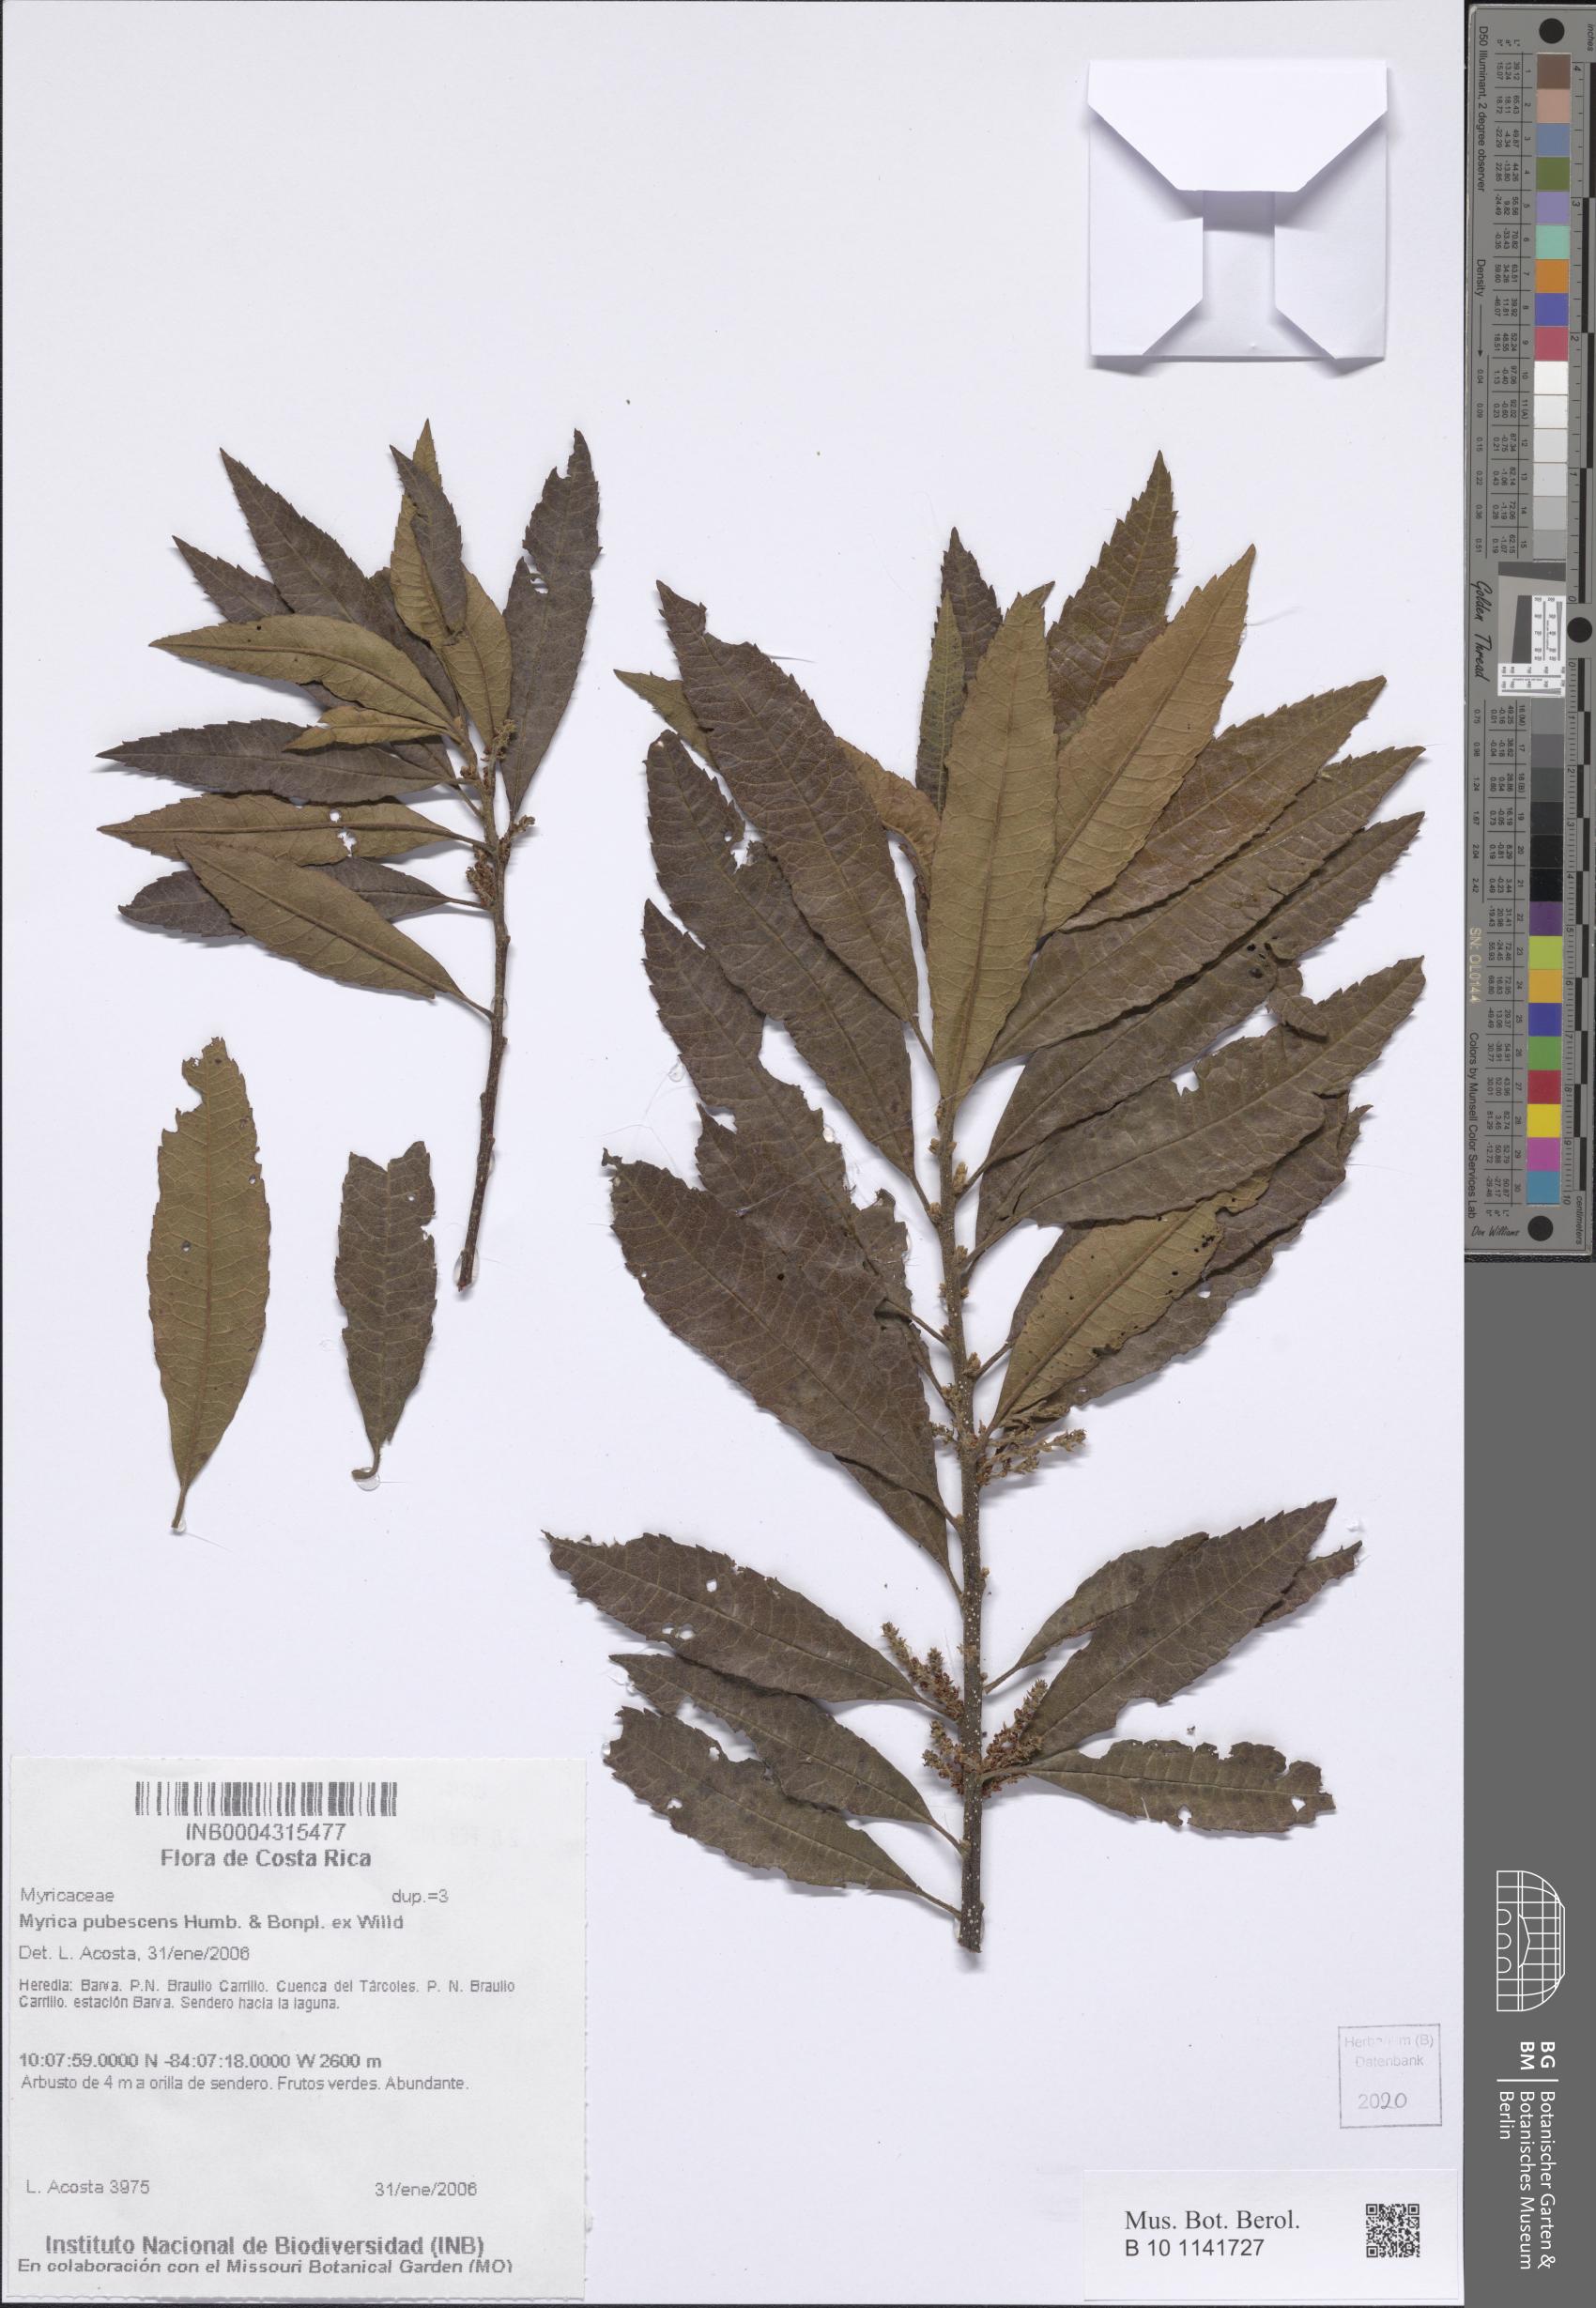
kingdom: Plantae
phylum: Tracheophyta
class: Magnoliopsida
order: Fagales
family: Myricaceae
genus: Morella
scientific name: Morella pubescens
